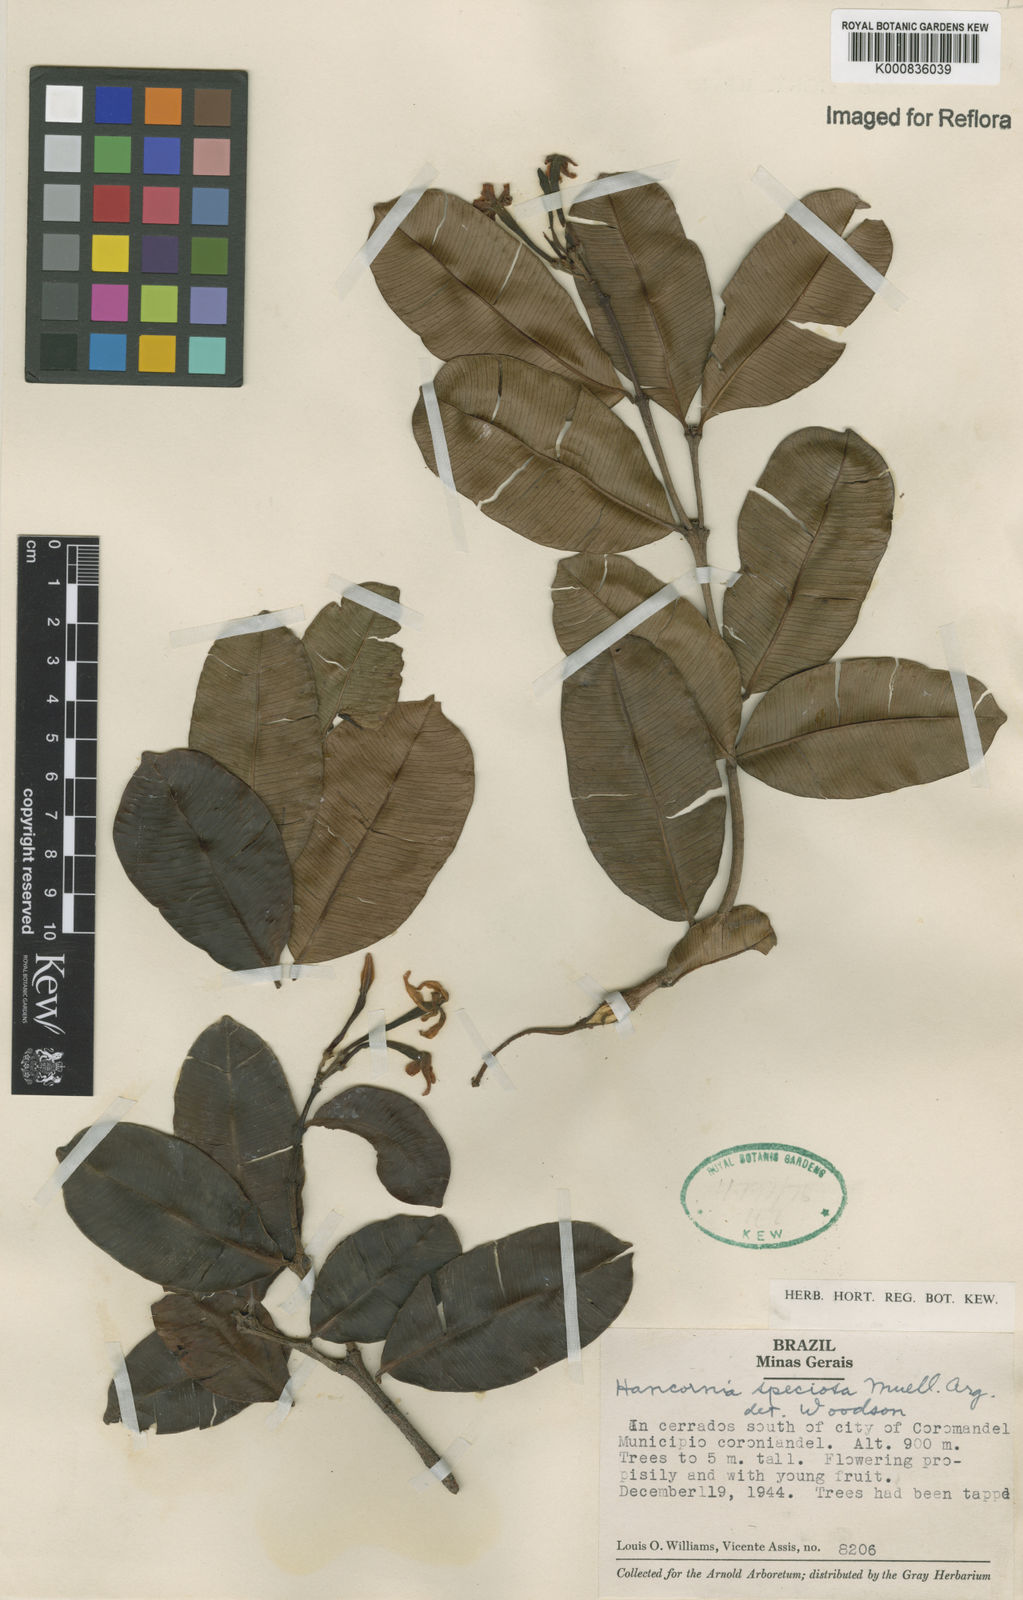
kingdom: Plantae
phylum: Tracheophyta
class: Magnoliopsida
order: Gentianales
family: Apocynaceae
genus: Hancornia
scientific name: Hancornia speciosa
